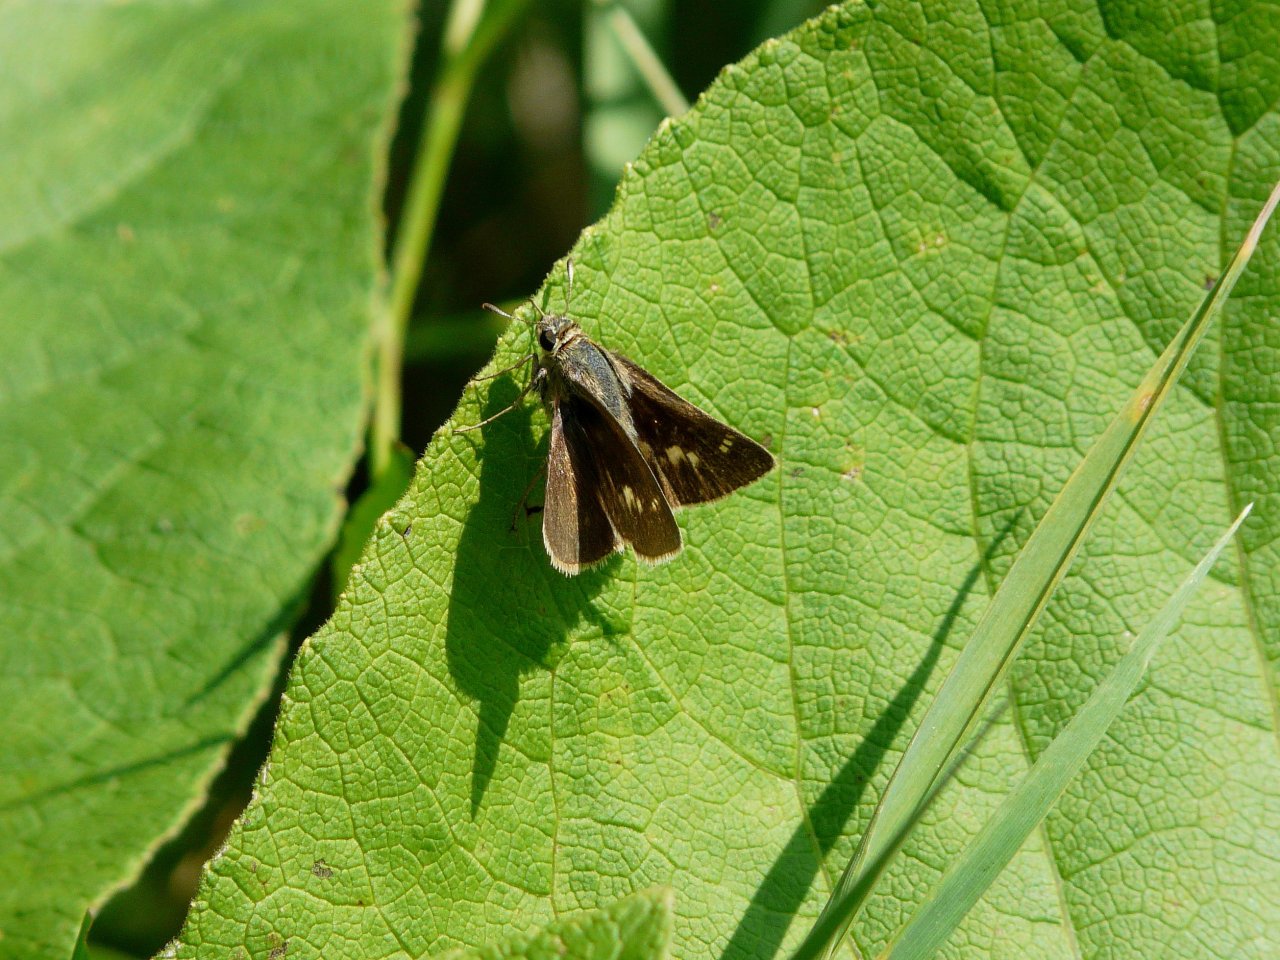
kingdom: Animalia
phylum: Arthropoda
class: Insecta
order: Lepidoptera
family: Hesperiidae
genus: Euphyes
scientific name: Euphyes
